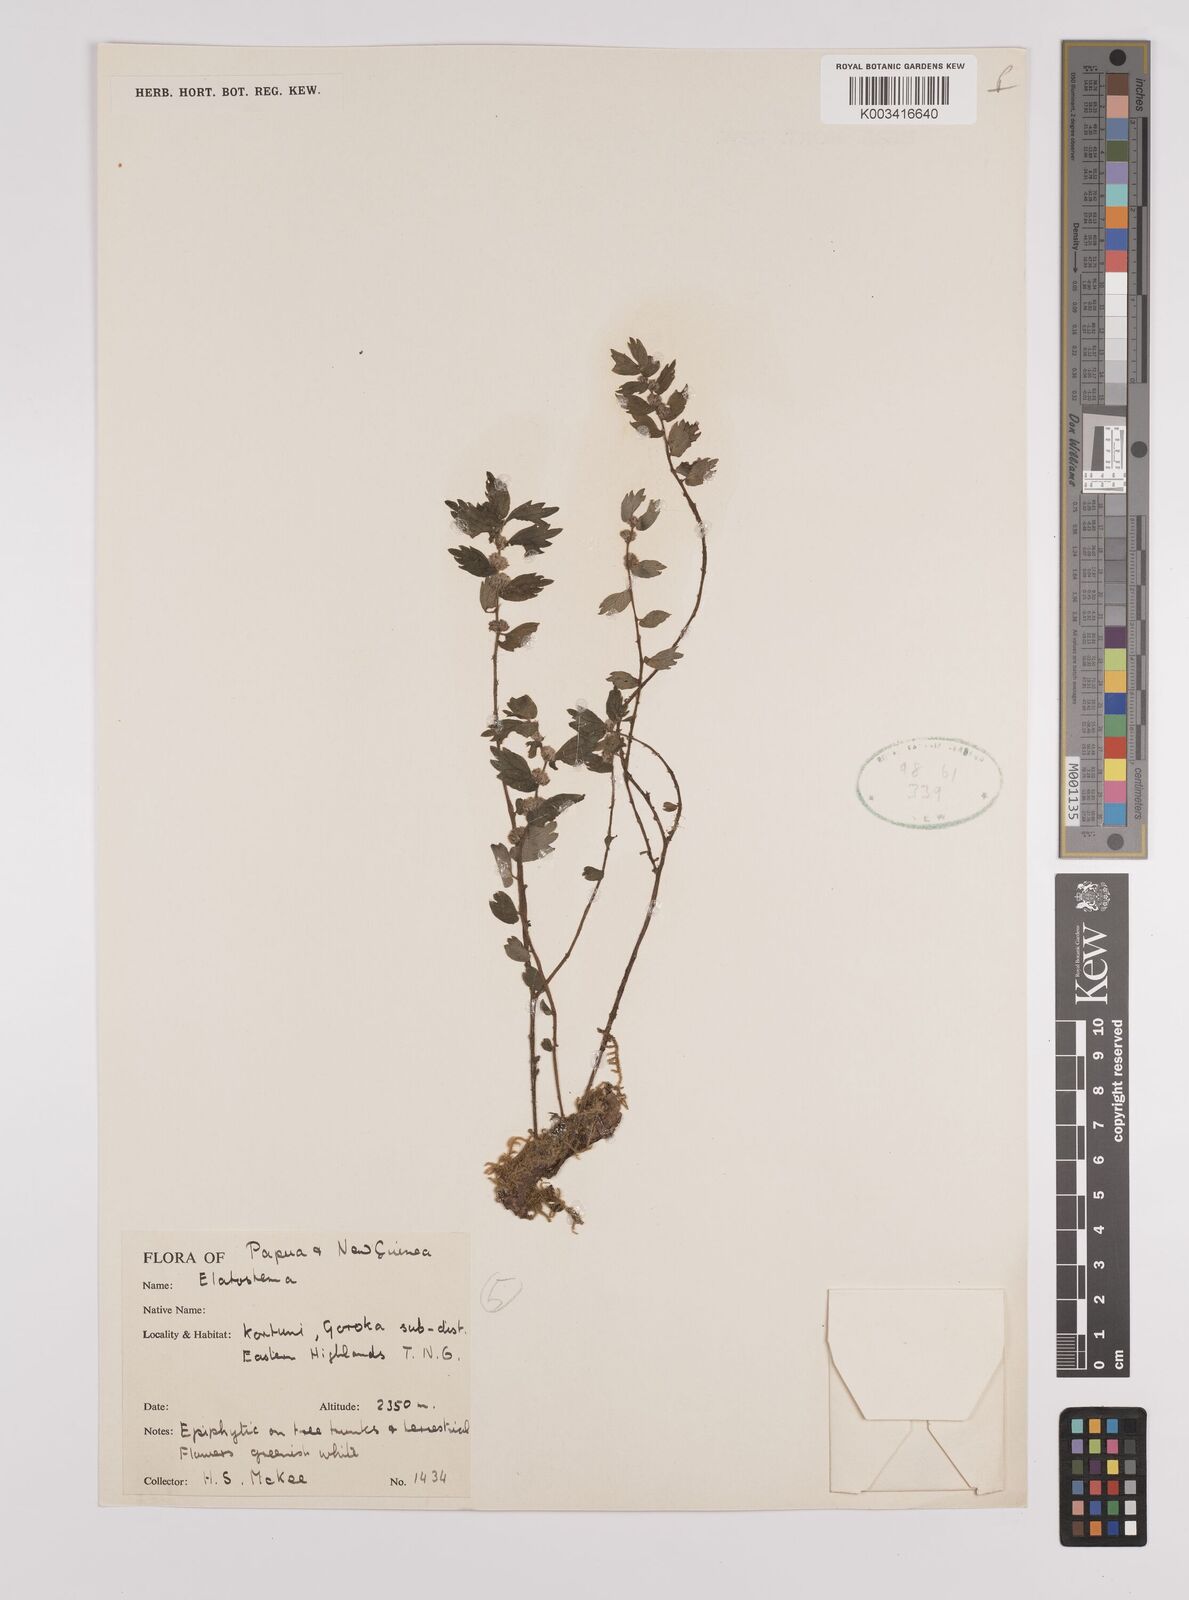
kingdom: Plantae
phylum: Tracheophyta
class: Magnoliopsida
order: Rosales
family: Urticaceae
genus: Elatostema
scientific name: Elatostema
